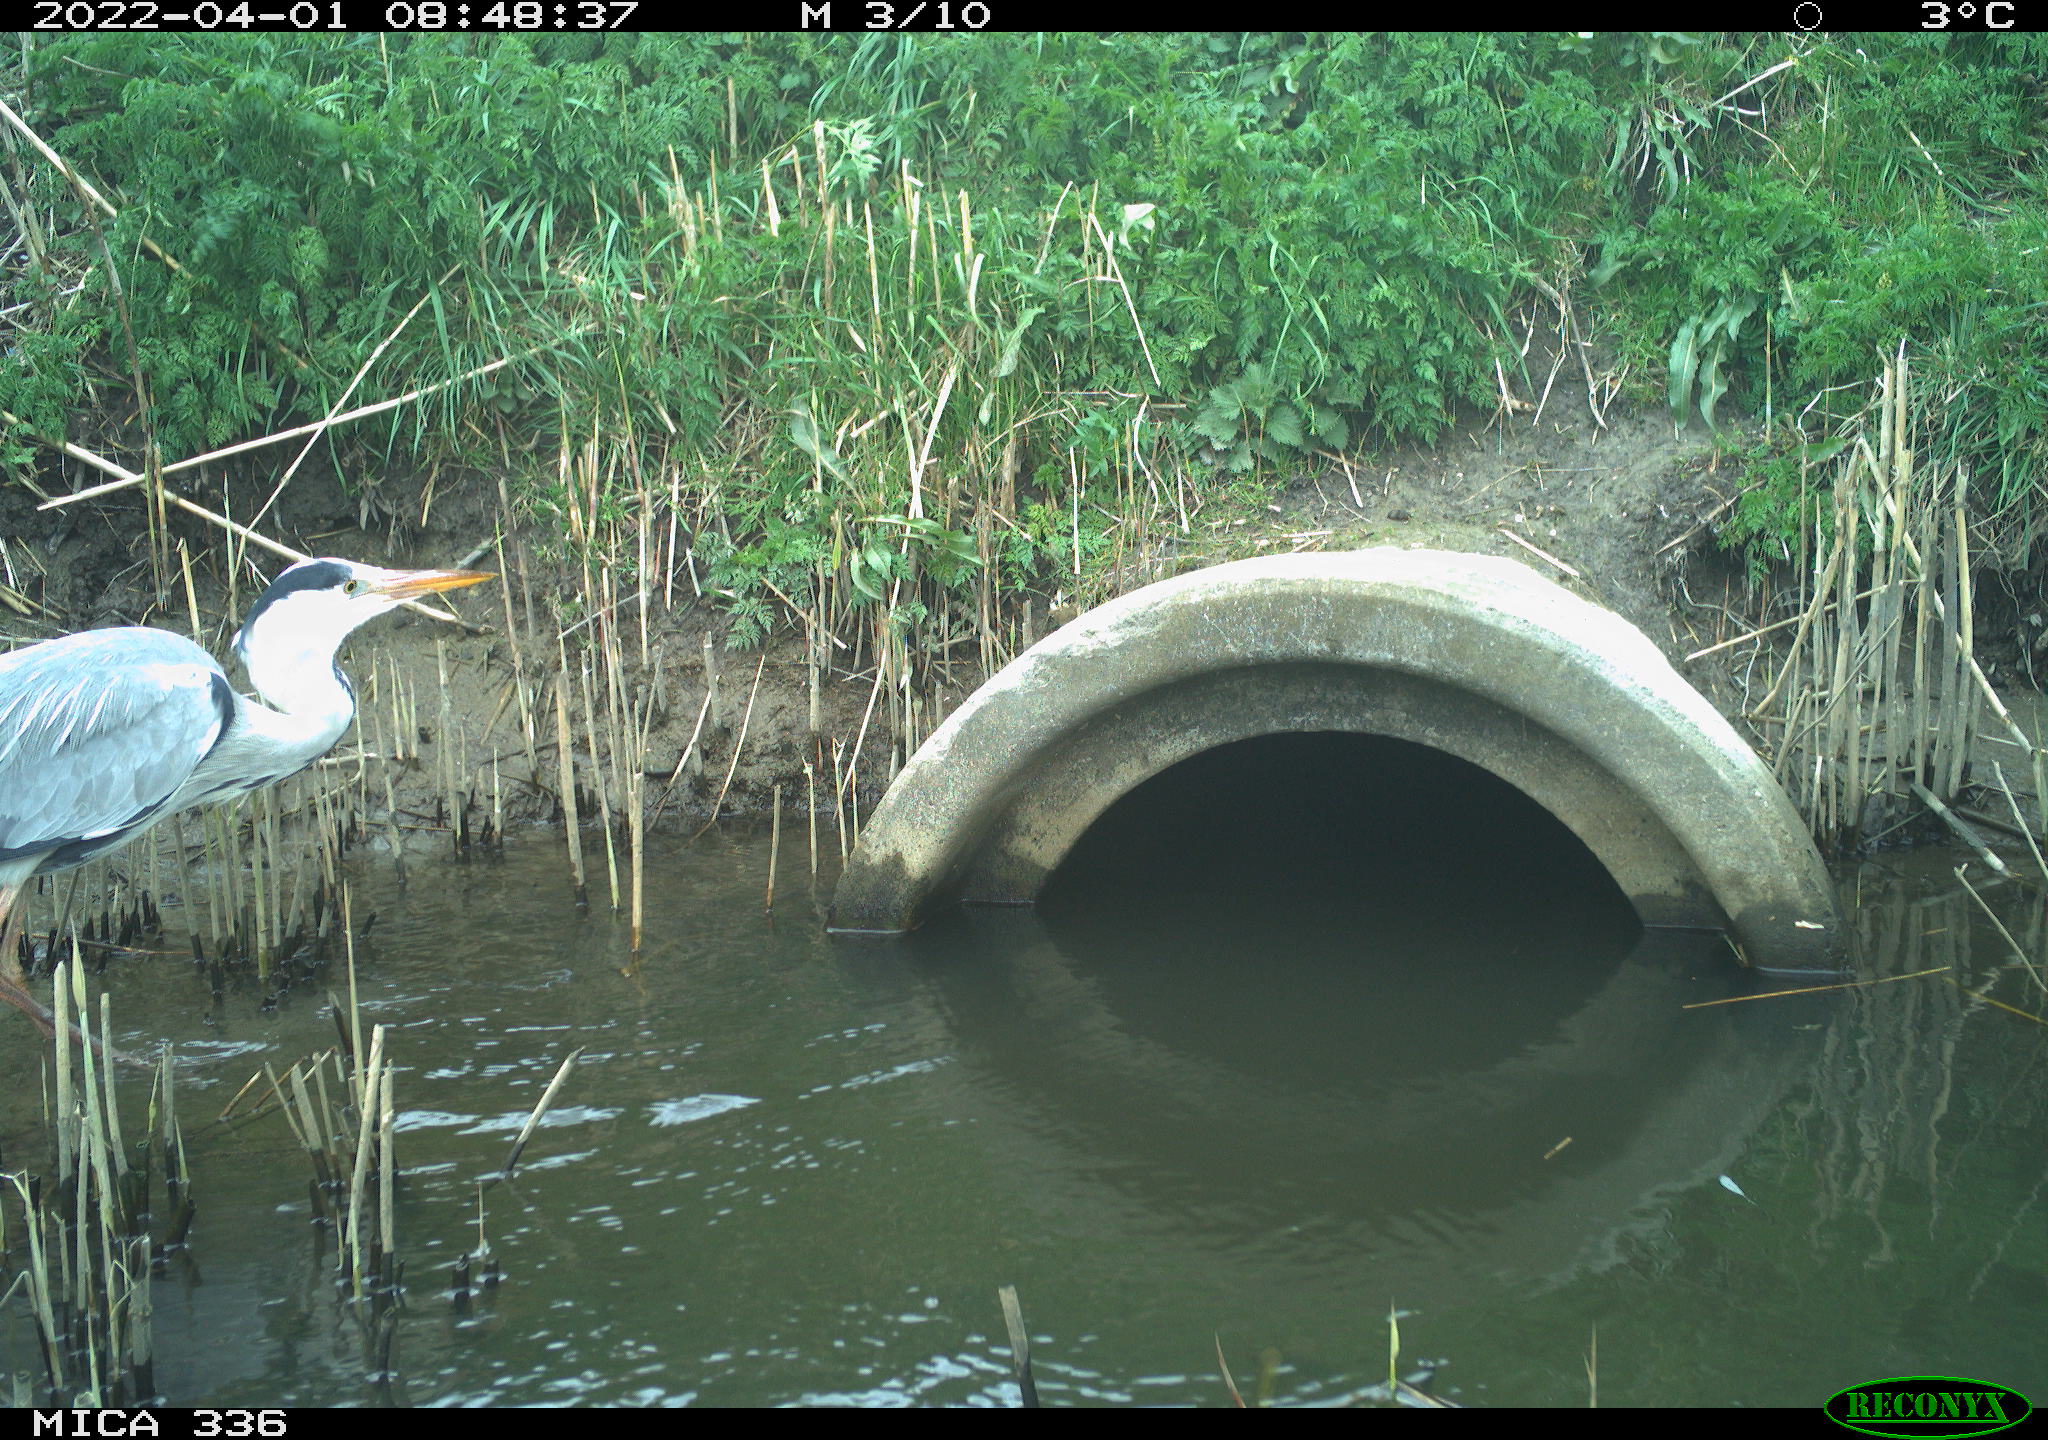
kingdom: Animalia
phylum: Chordata
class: Aves
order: Pelecaniformes
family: Ardeidae
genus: Ardea
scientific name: Ardea
